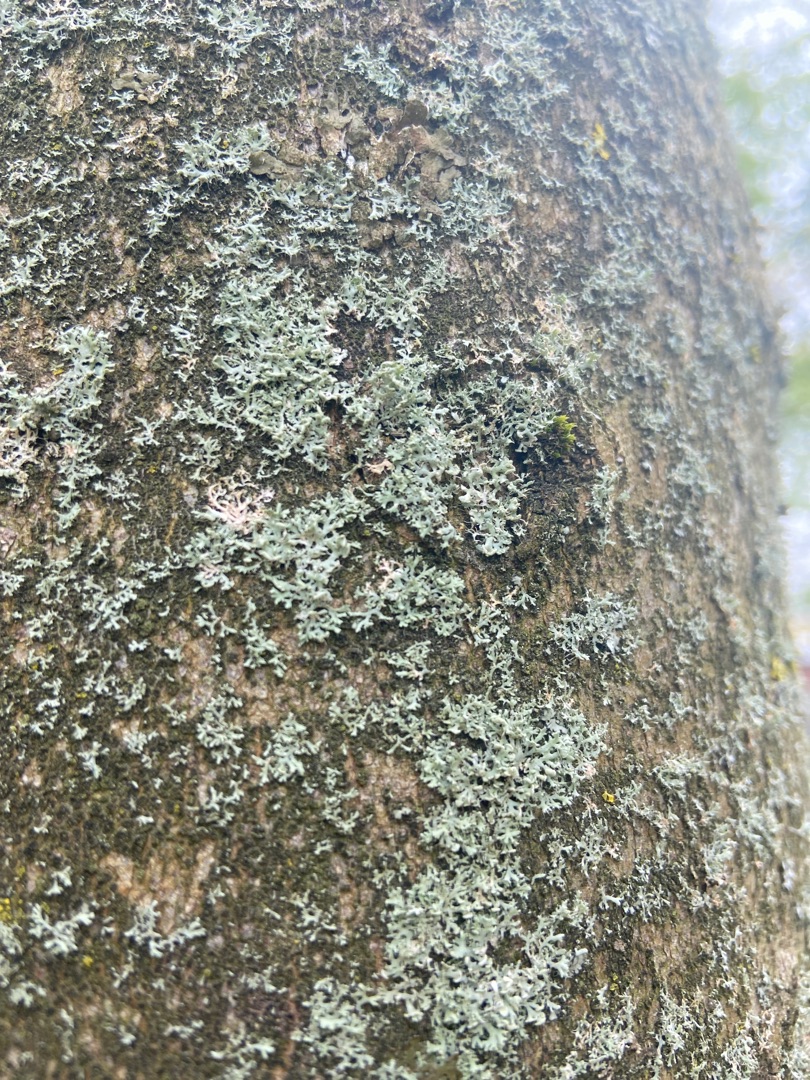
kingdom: Fungi
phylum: Ascomycota
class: Lecanoromycetes
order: Caliciales
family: Physciaceae
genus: Physcia
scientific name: Physcia tenella
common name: Spæd rosetlav
